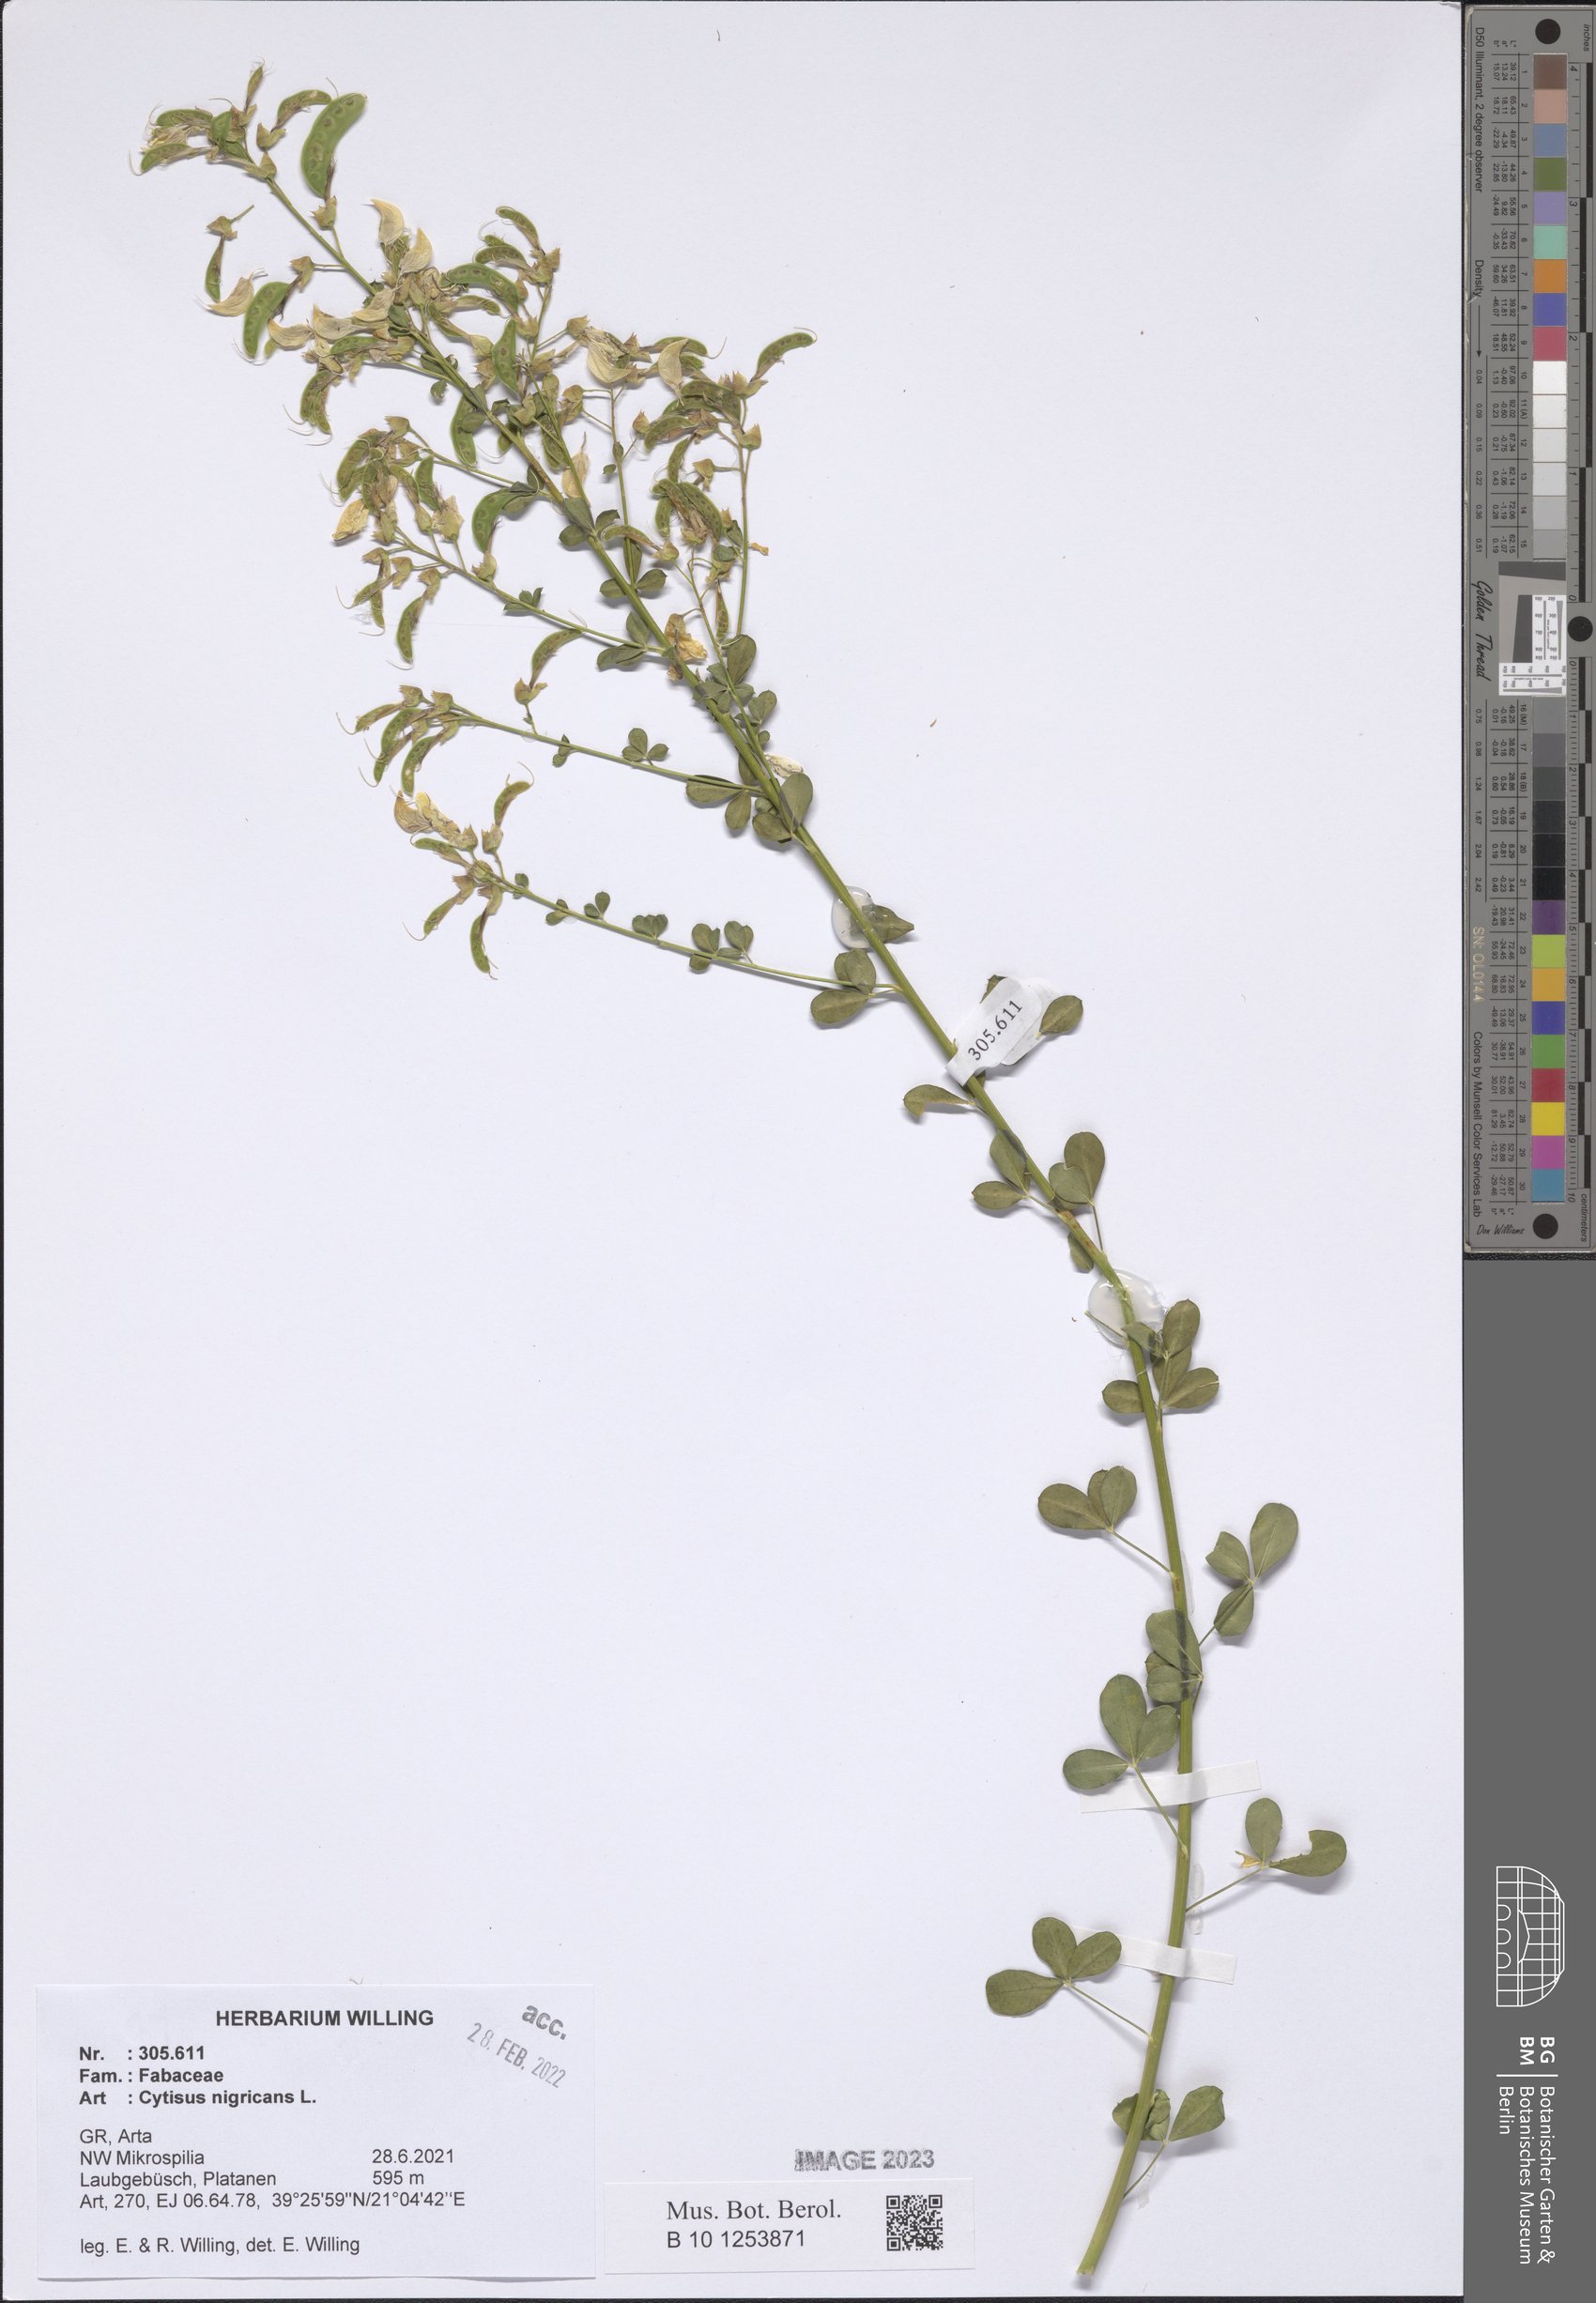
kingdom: Plantae
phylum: Tracheophyta
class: Magnoliopsida
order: Fabales
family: Fabaceae
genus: Cytisus
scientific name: Cytisus nigricans
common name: Black broom
